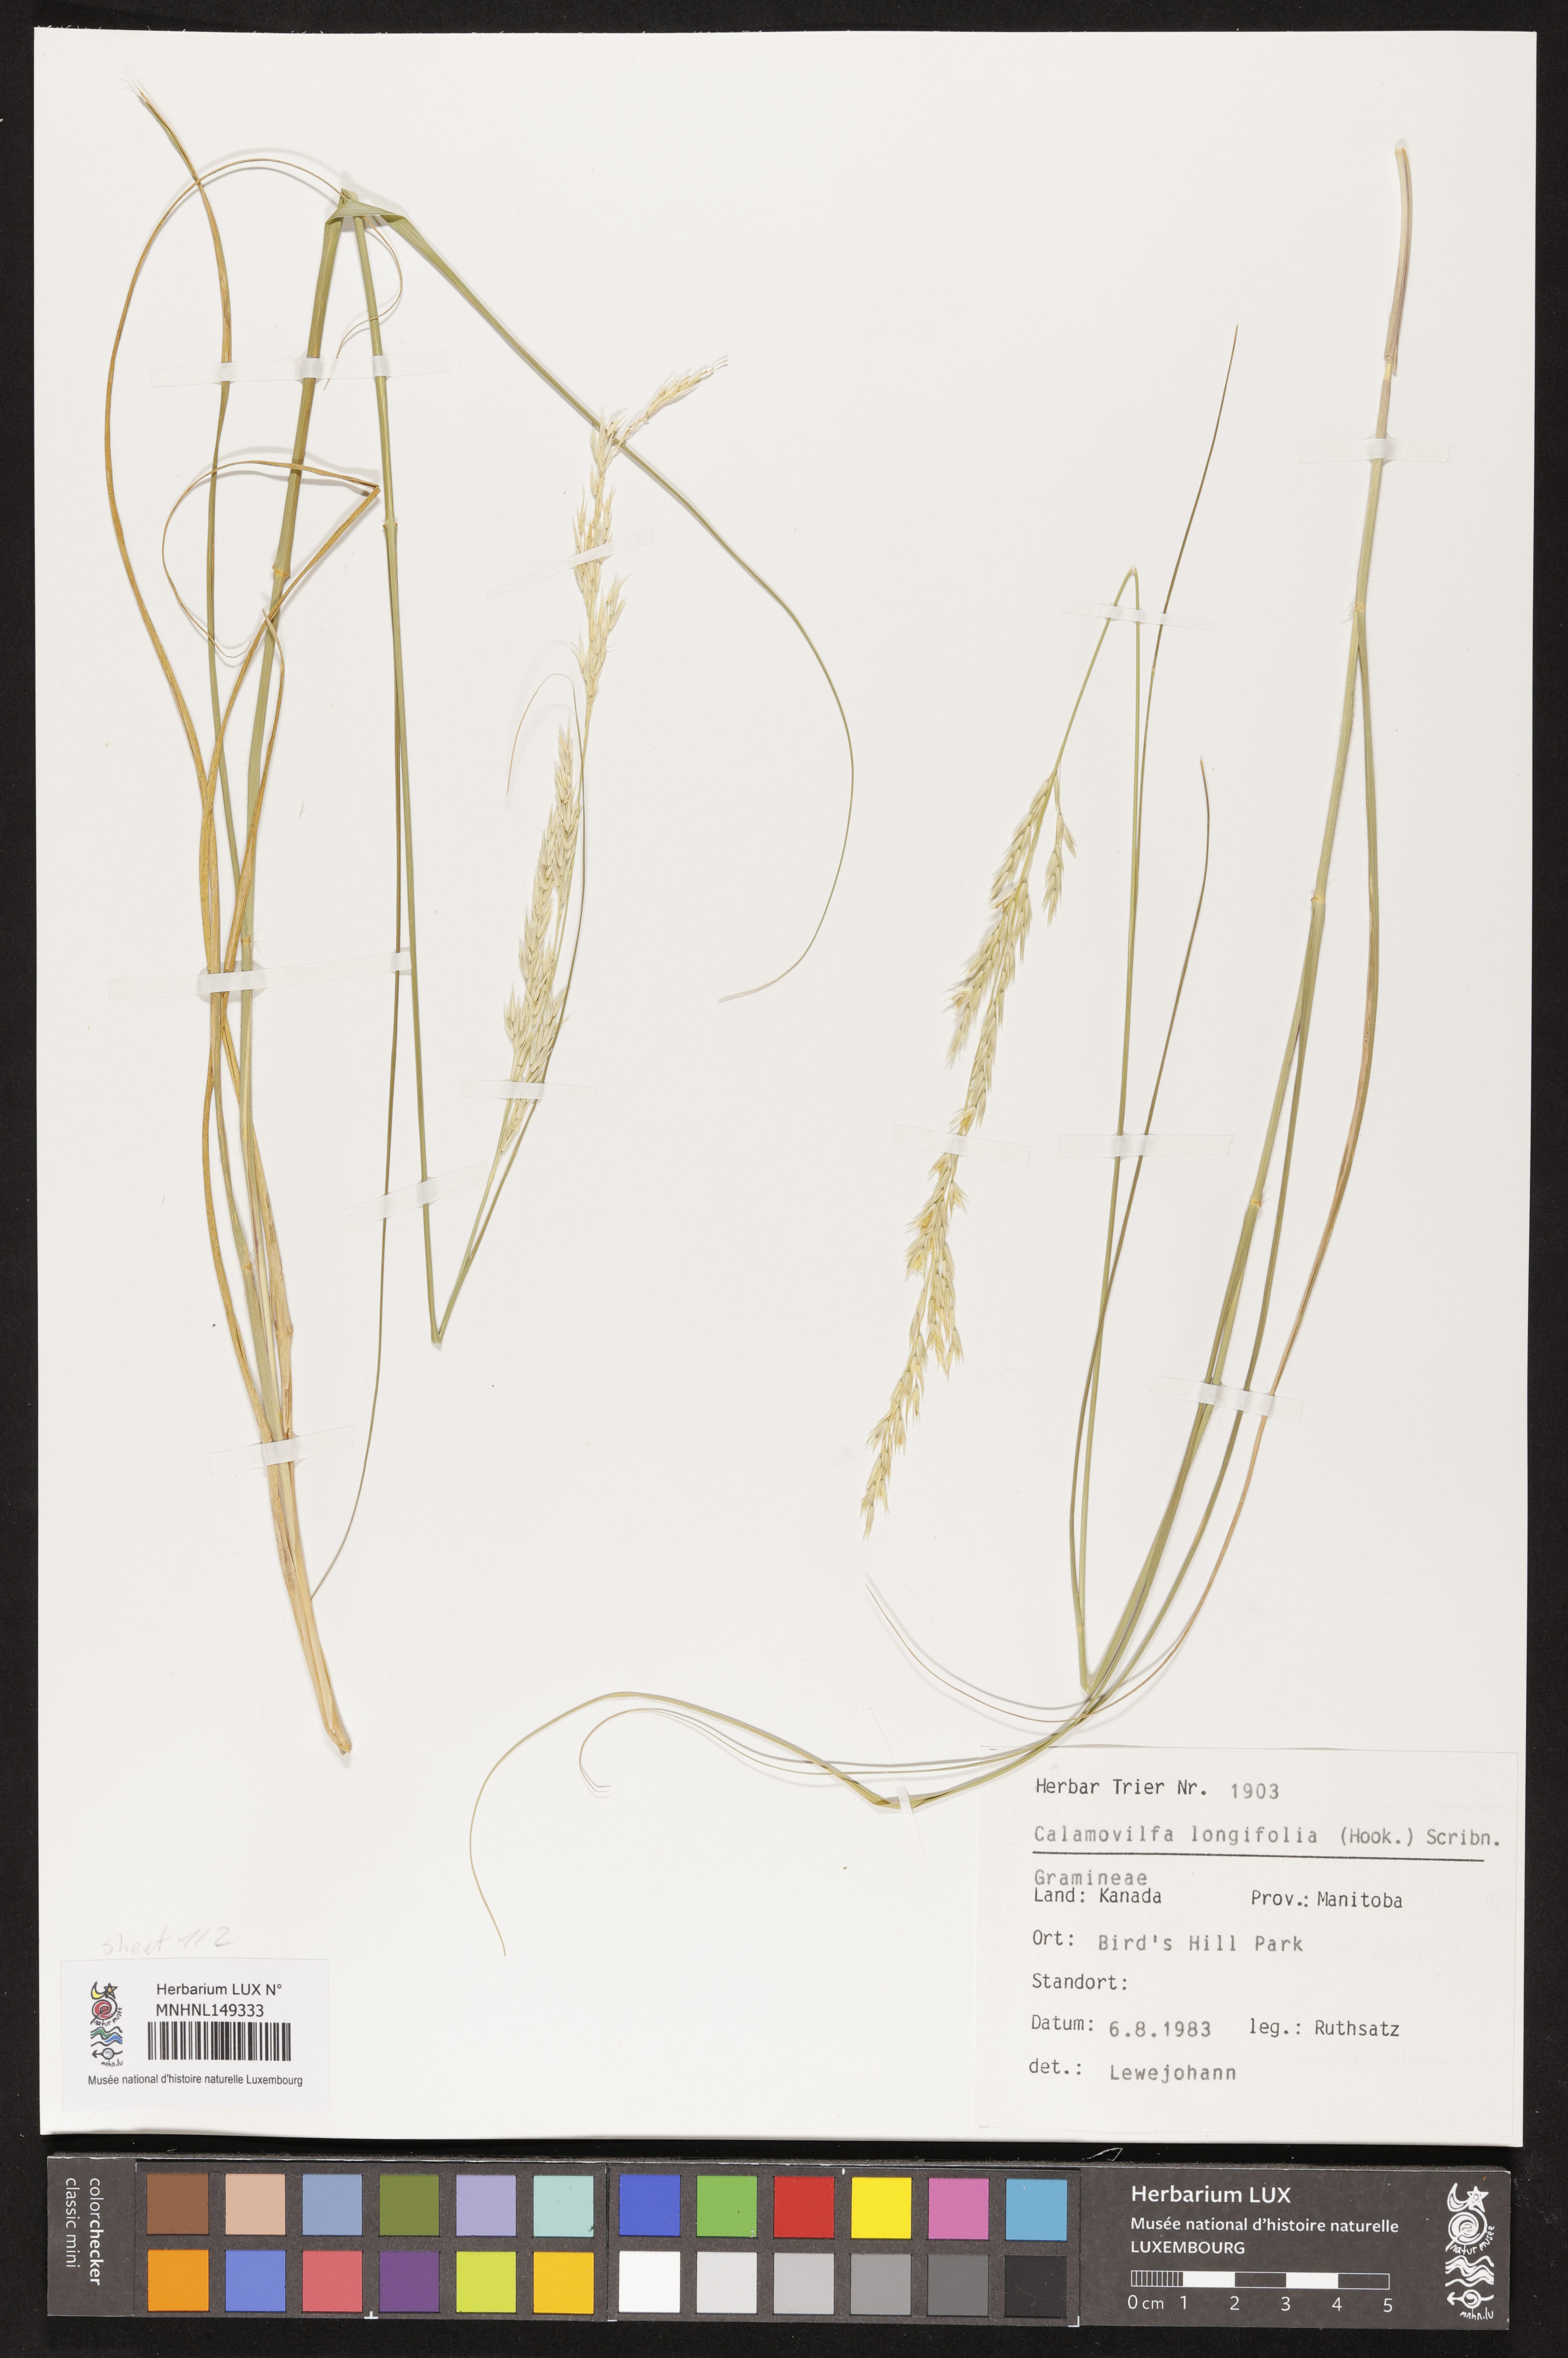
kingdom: Plantae
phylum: Tracheophyta
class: Liliopsida
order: Poales
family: Poaceae
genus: Sporobolus
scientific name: Sporobolus rigidus
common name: Prairie sandreed
